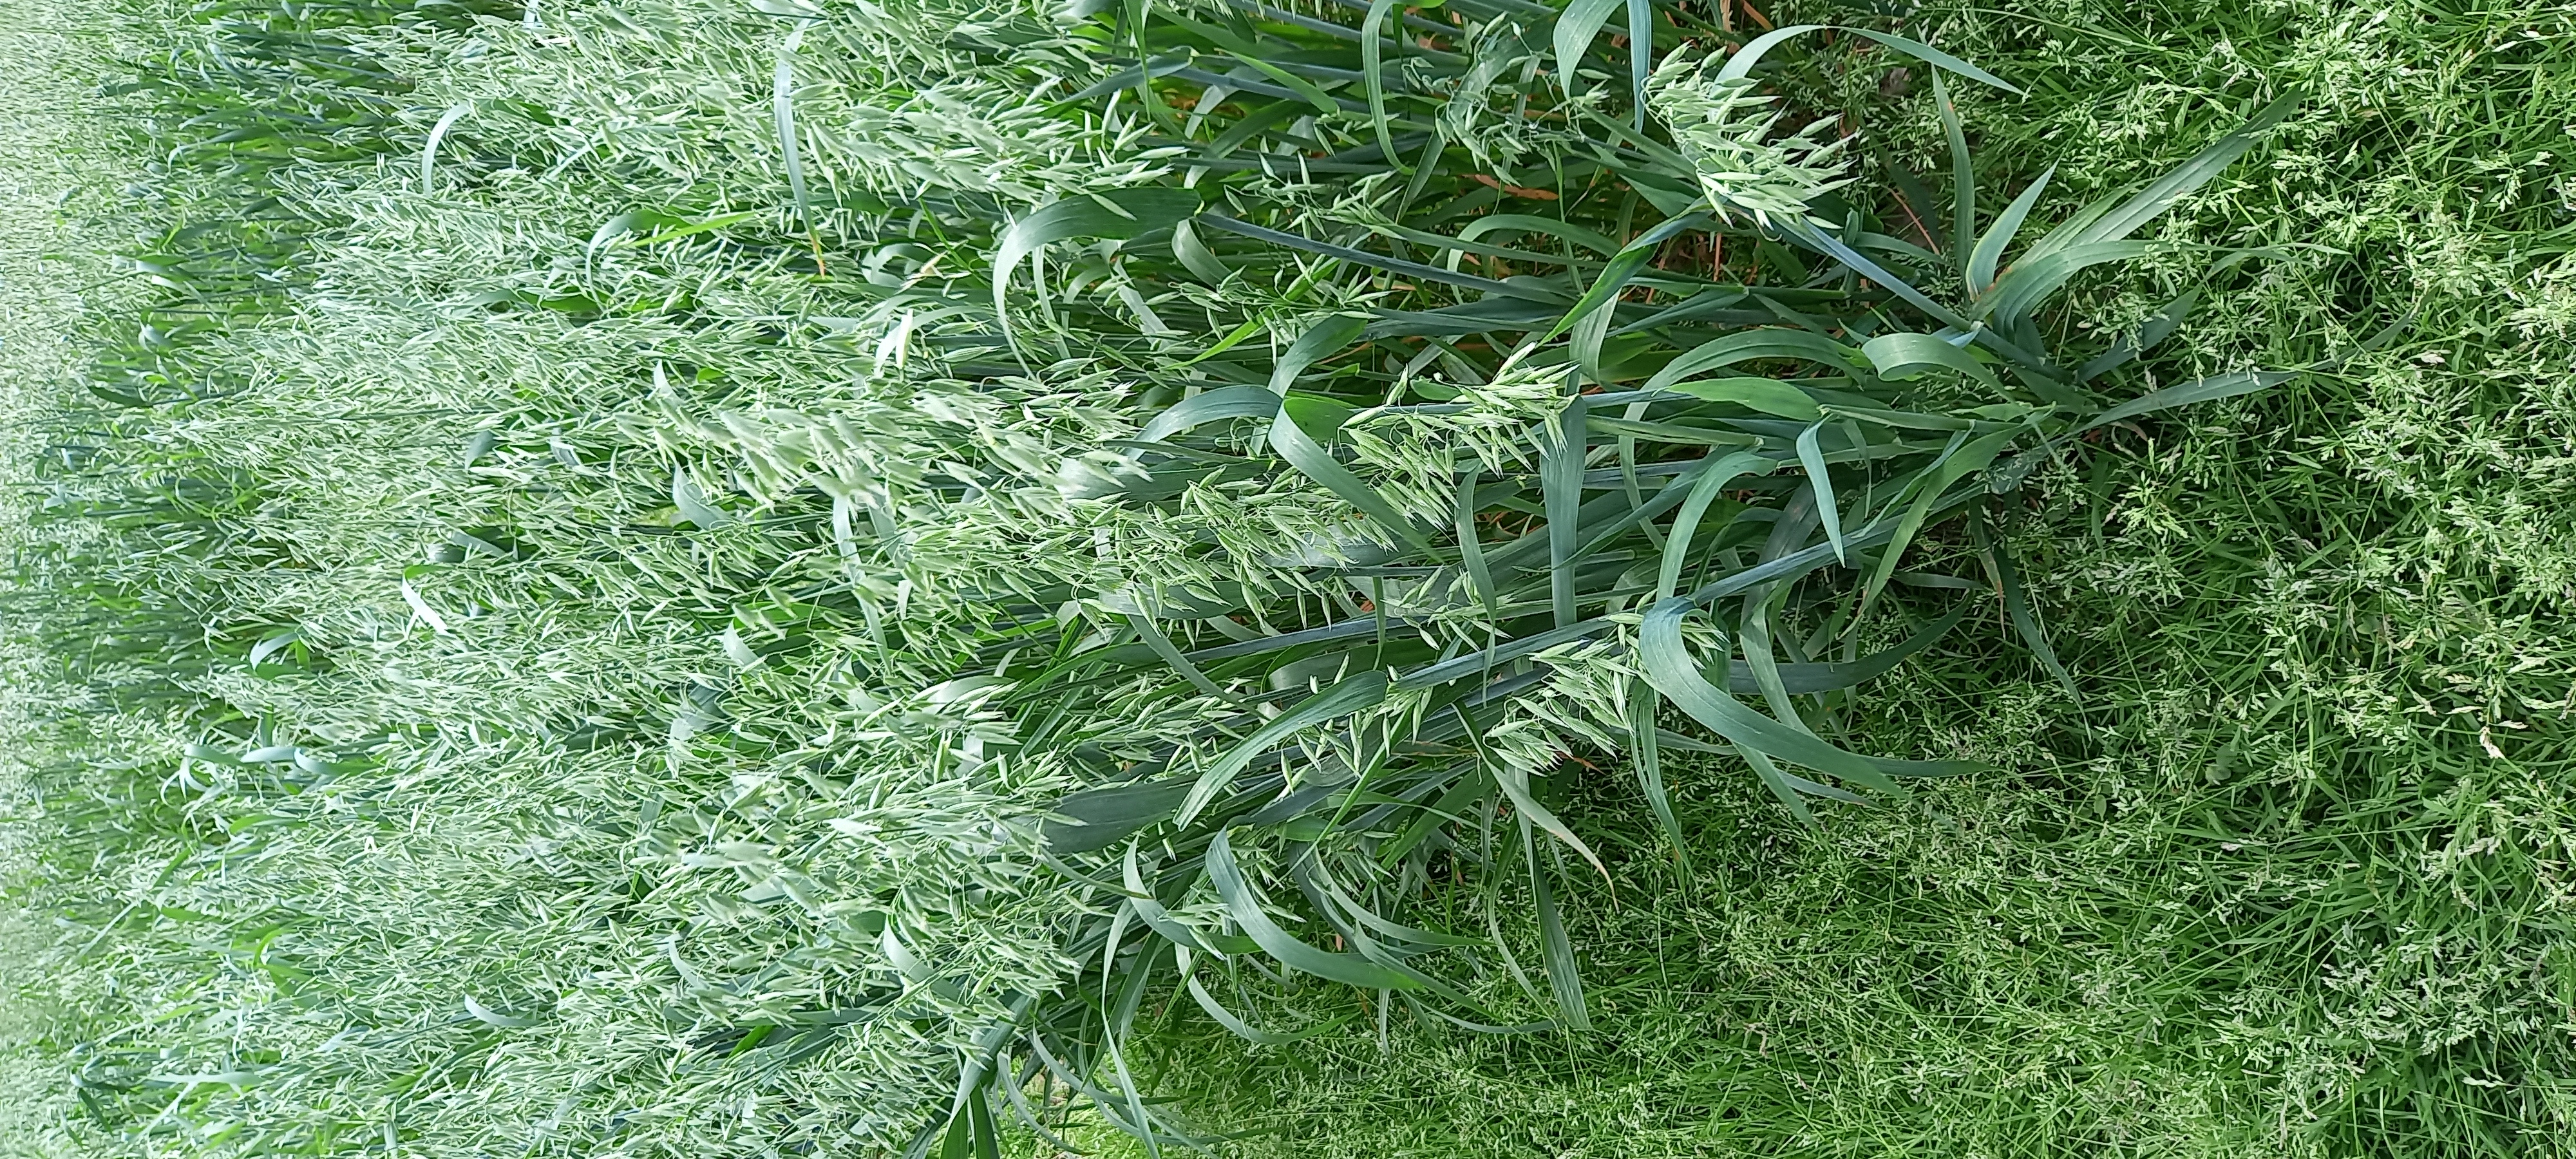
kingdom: Plantae
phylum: Tracheophyta
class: Liliopsida
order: Poales
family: Poaceae
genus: Avena
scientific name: Avena sativa
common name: Oat
